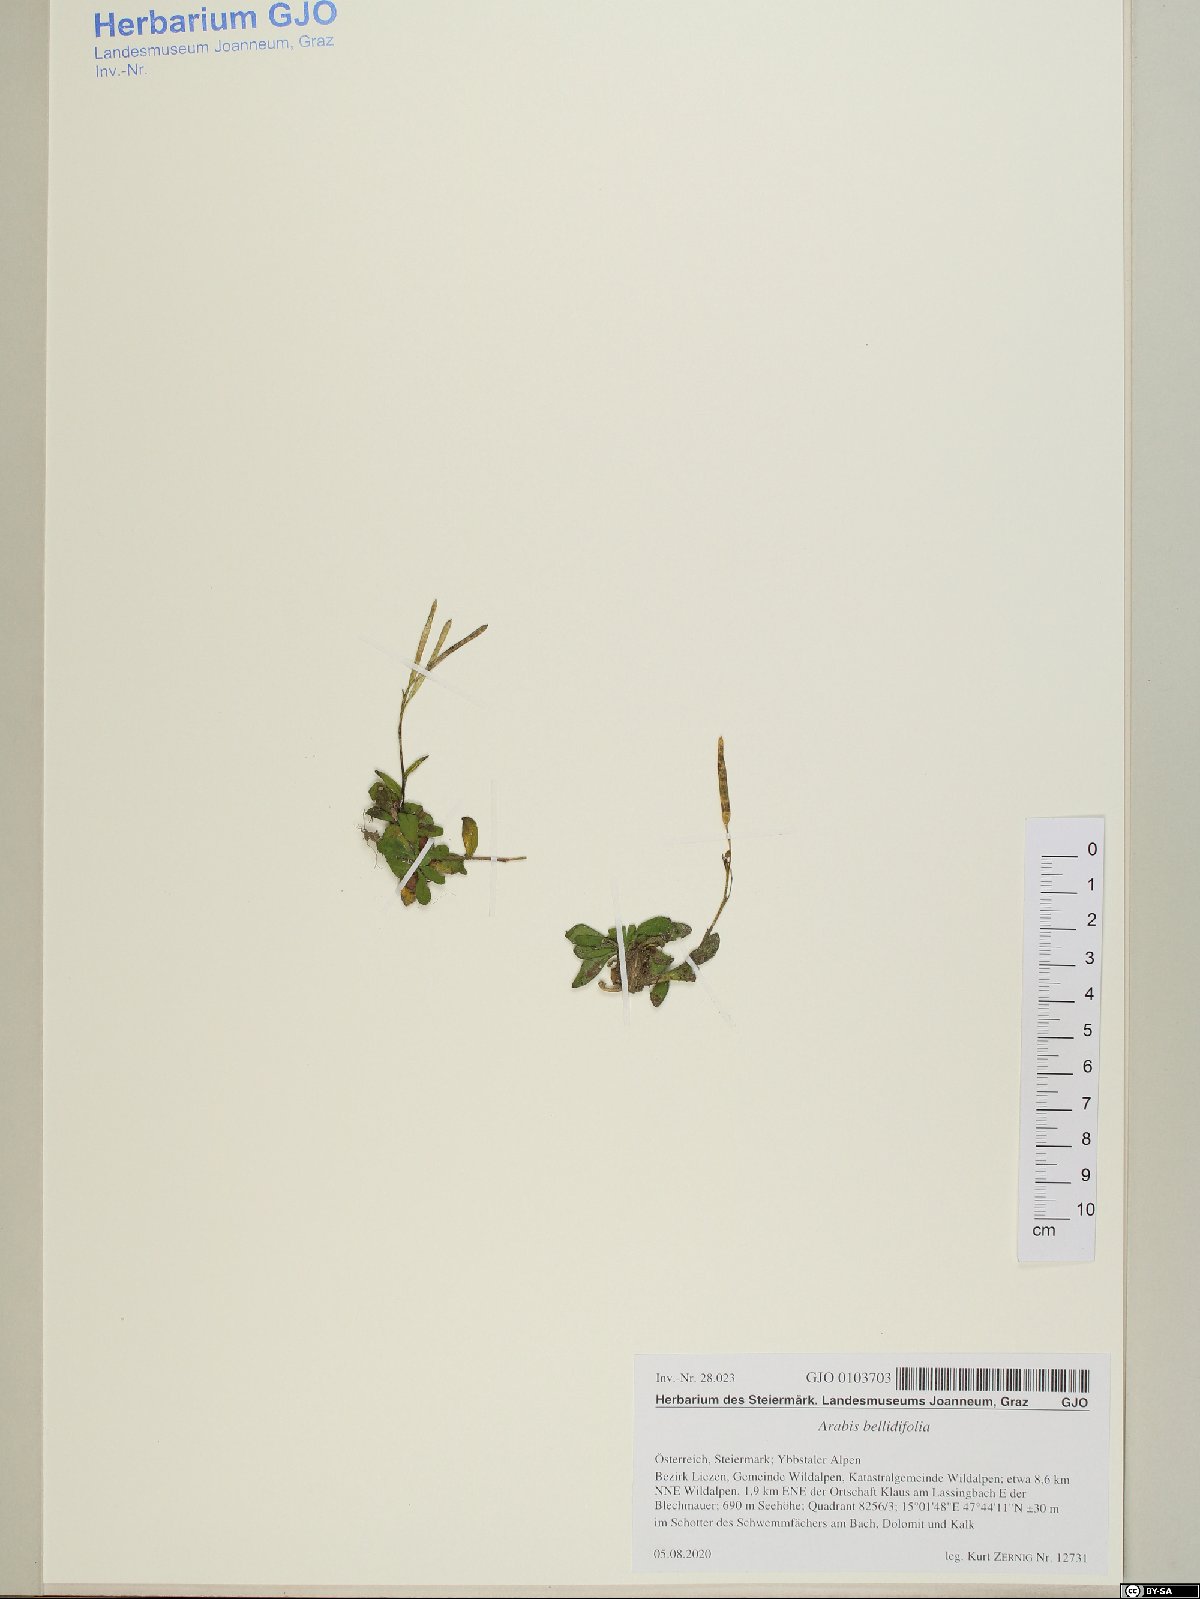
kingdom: Plantae
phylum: Tracheophyta
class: Magnoliopsida
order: Brassicales
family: Brassicaceae
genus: Arabis
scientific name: Arabis soyeri
